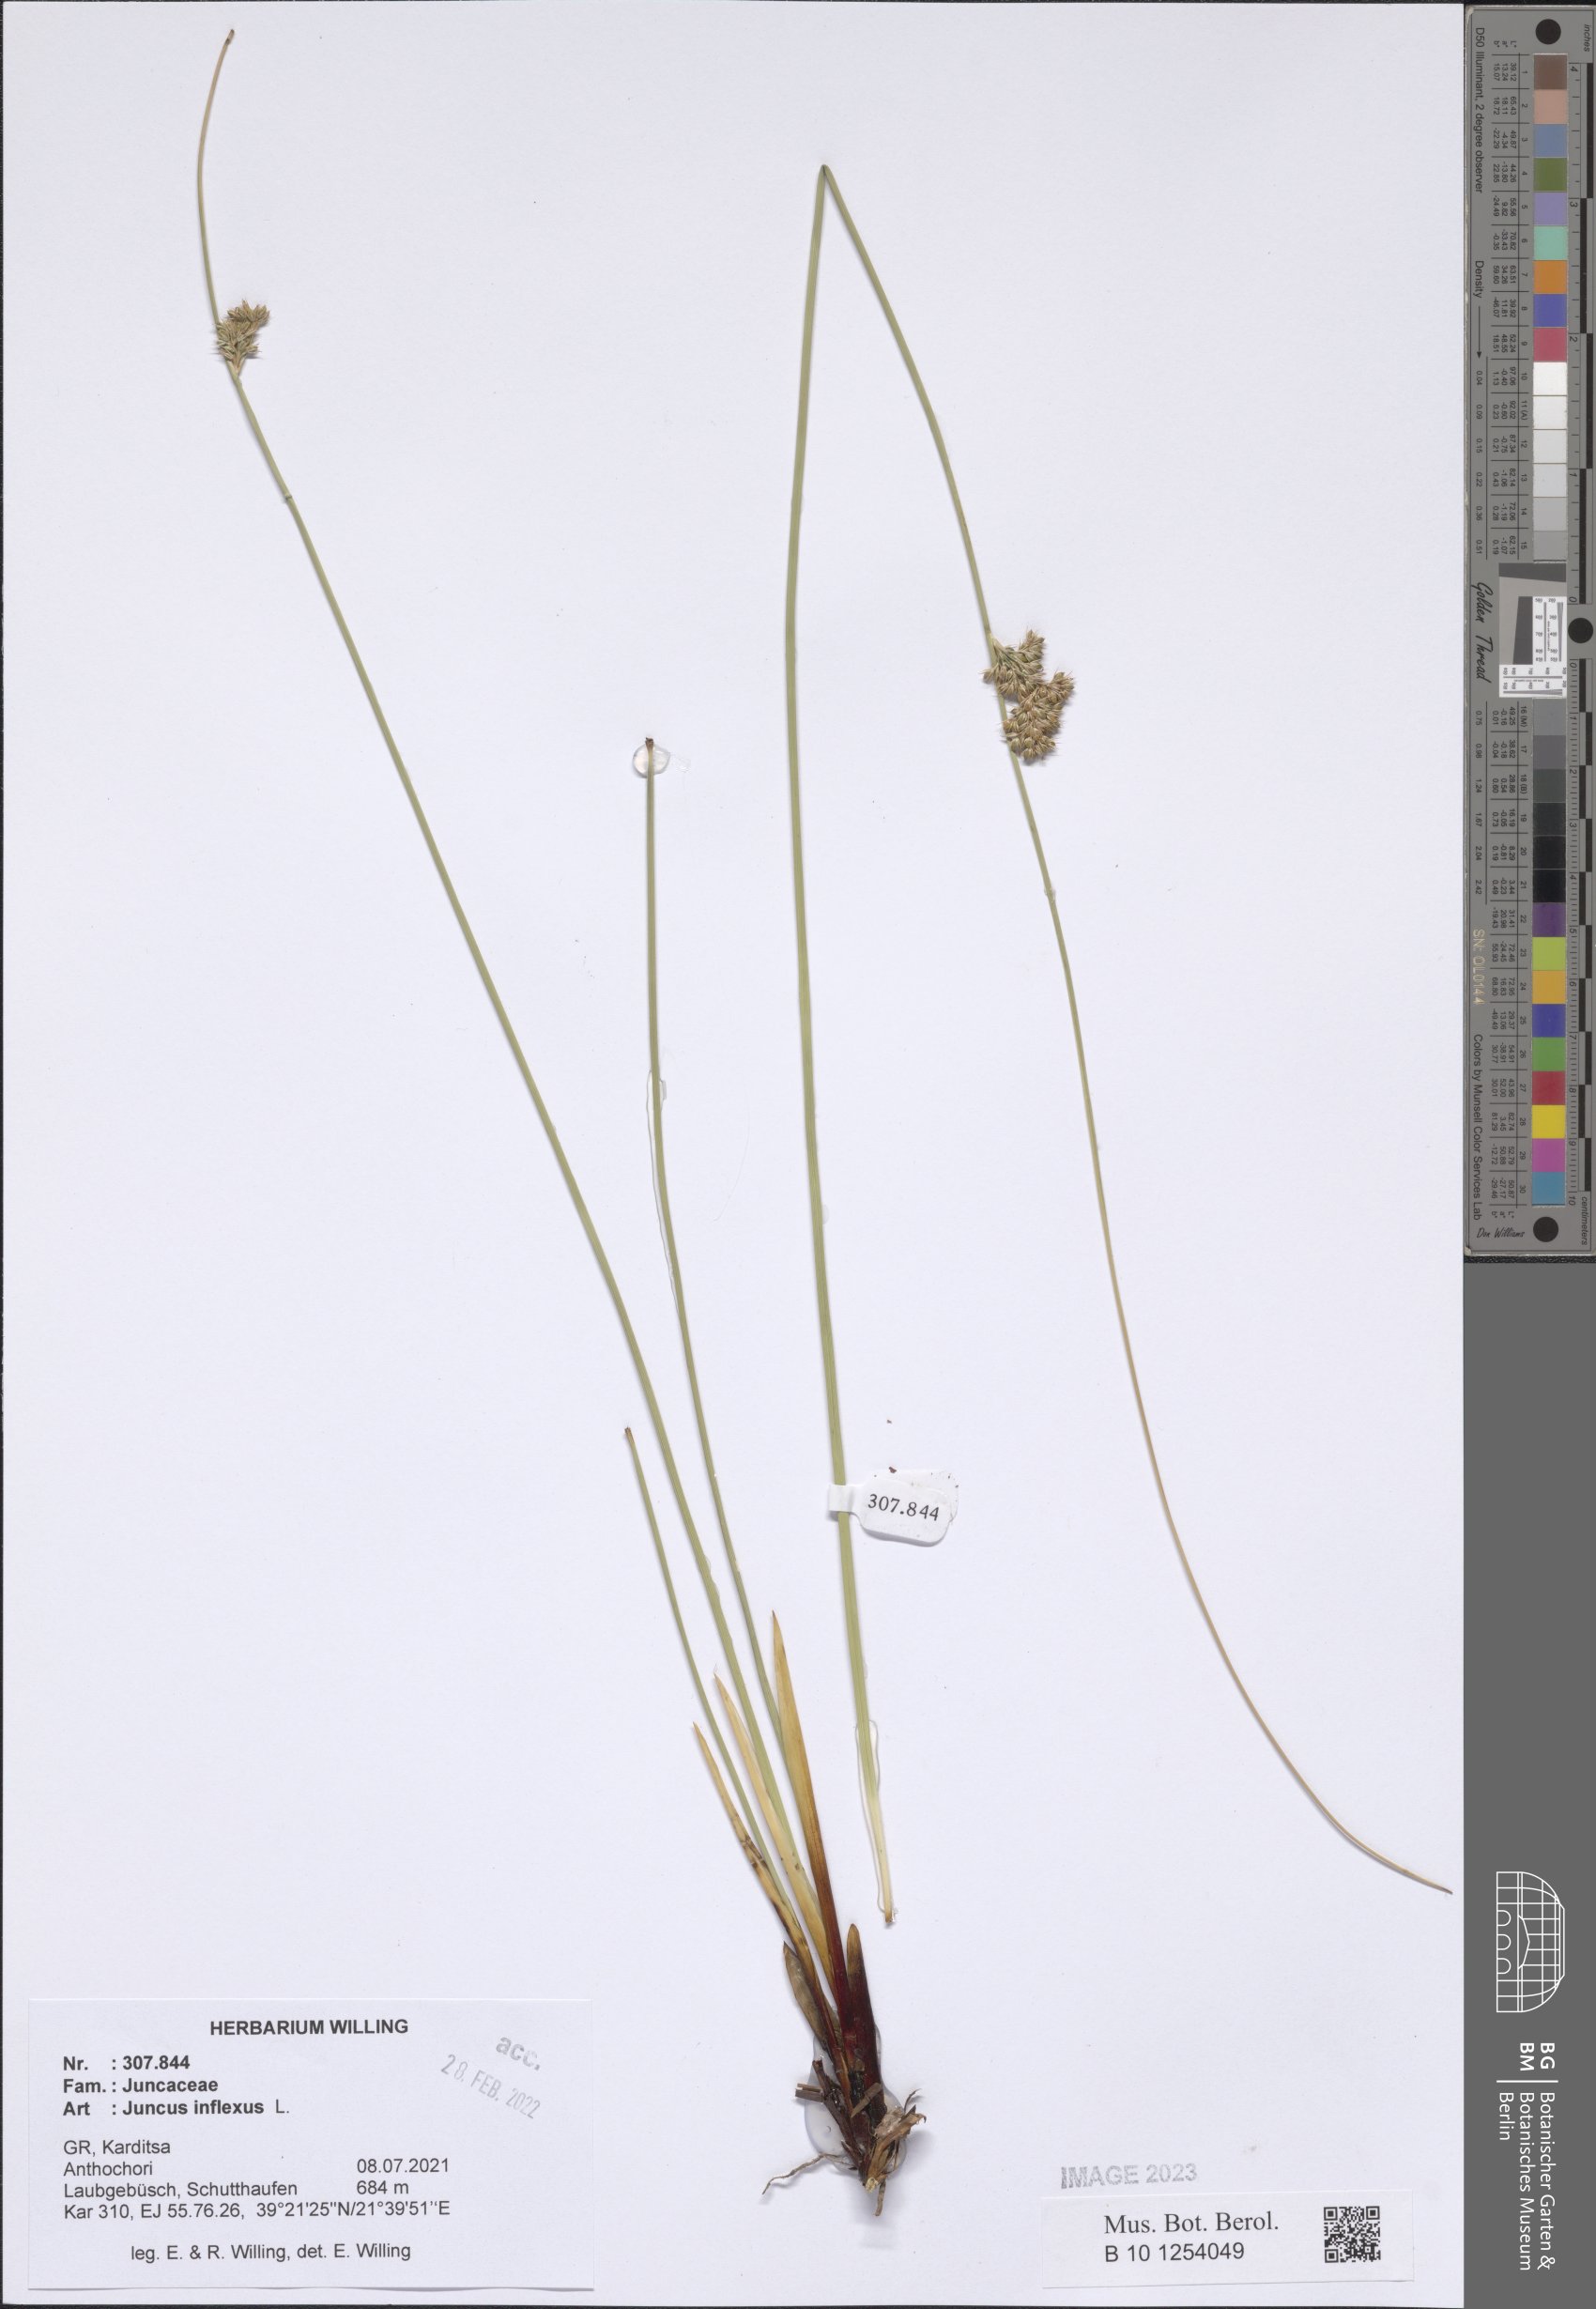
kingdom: Plantae
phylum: Tracheophyta
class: Liliopsida
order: Poales
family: Juncaceae
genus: Juncus
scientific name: Juncus inflexus
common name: Hard rush
